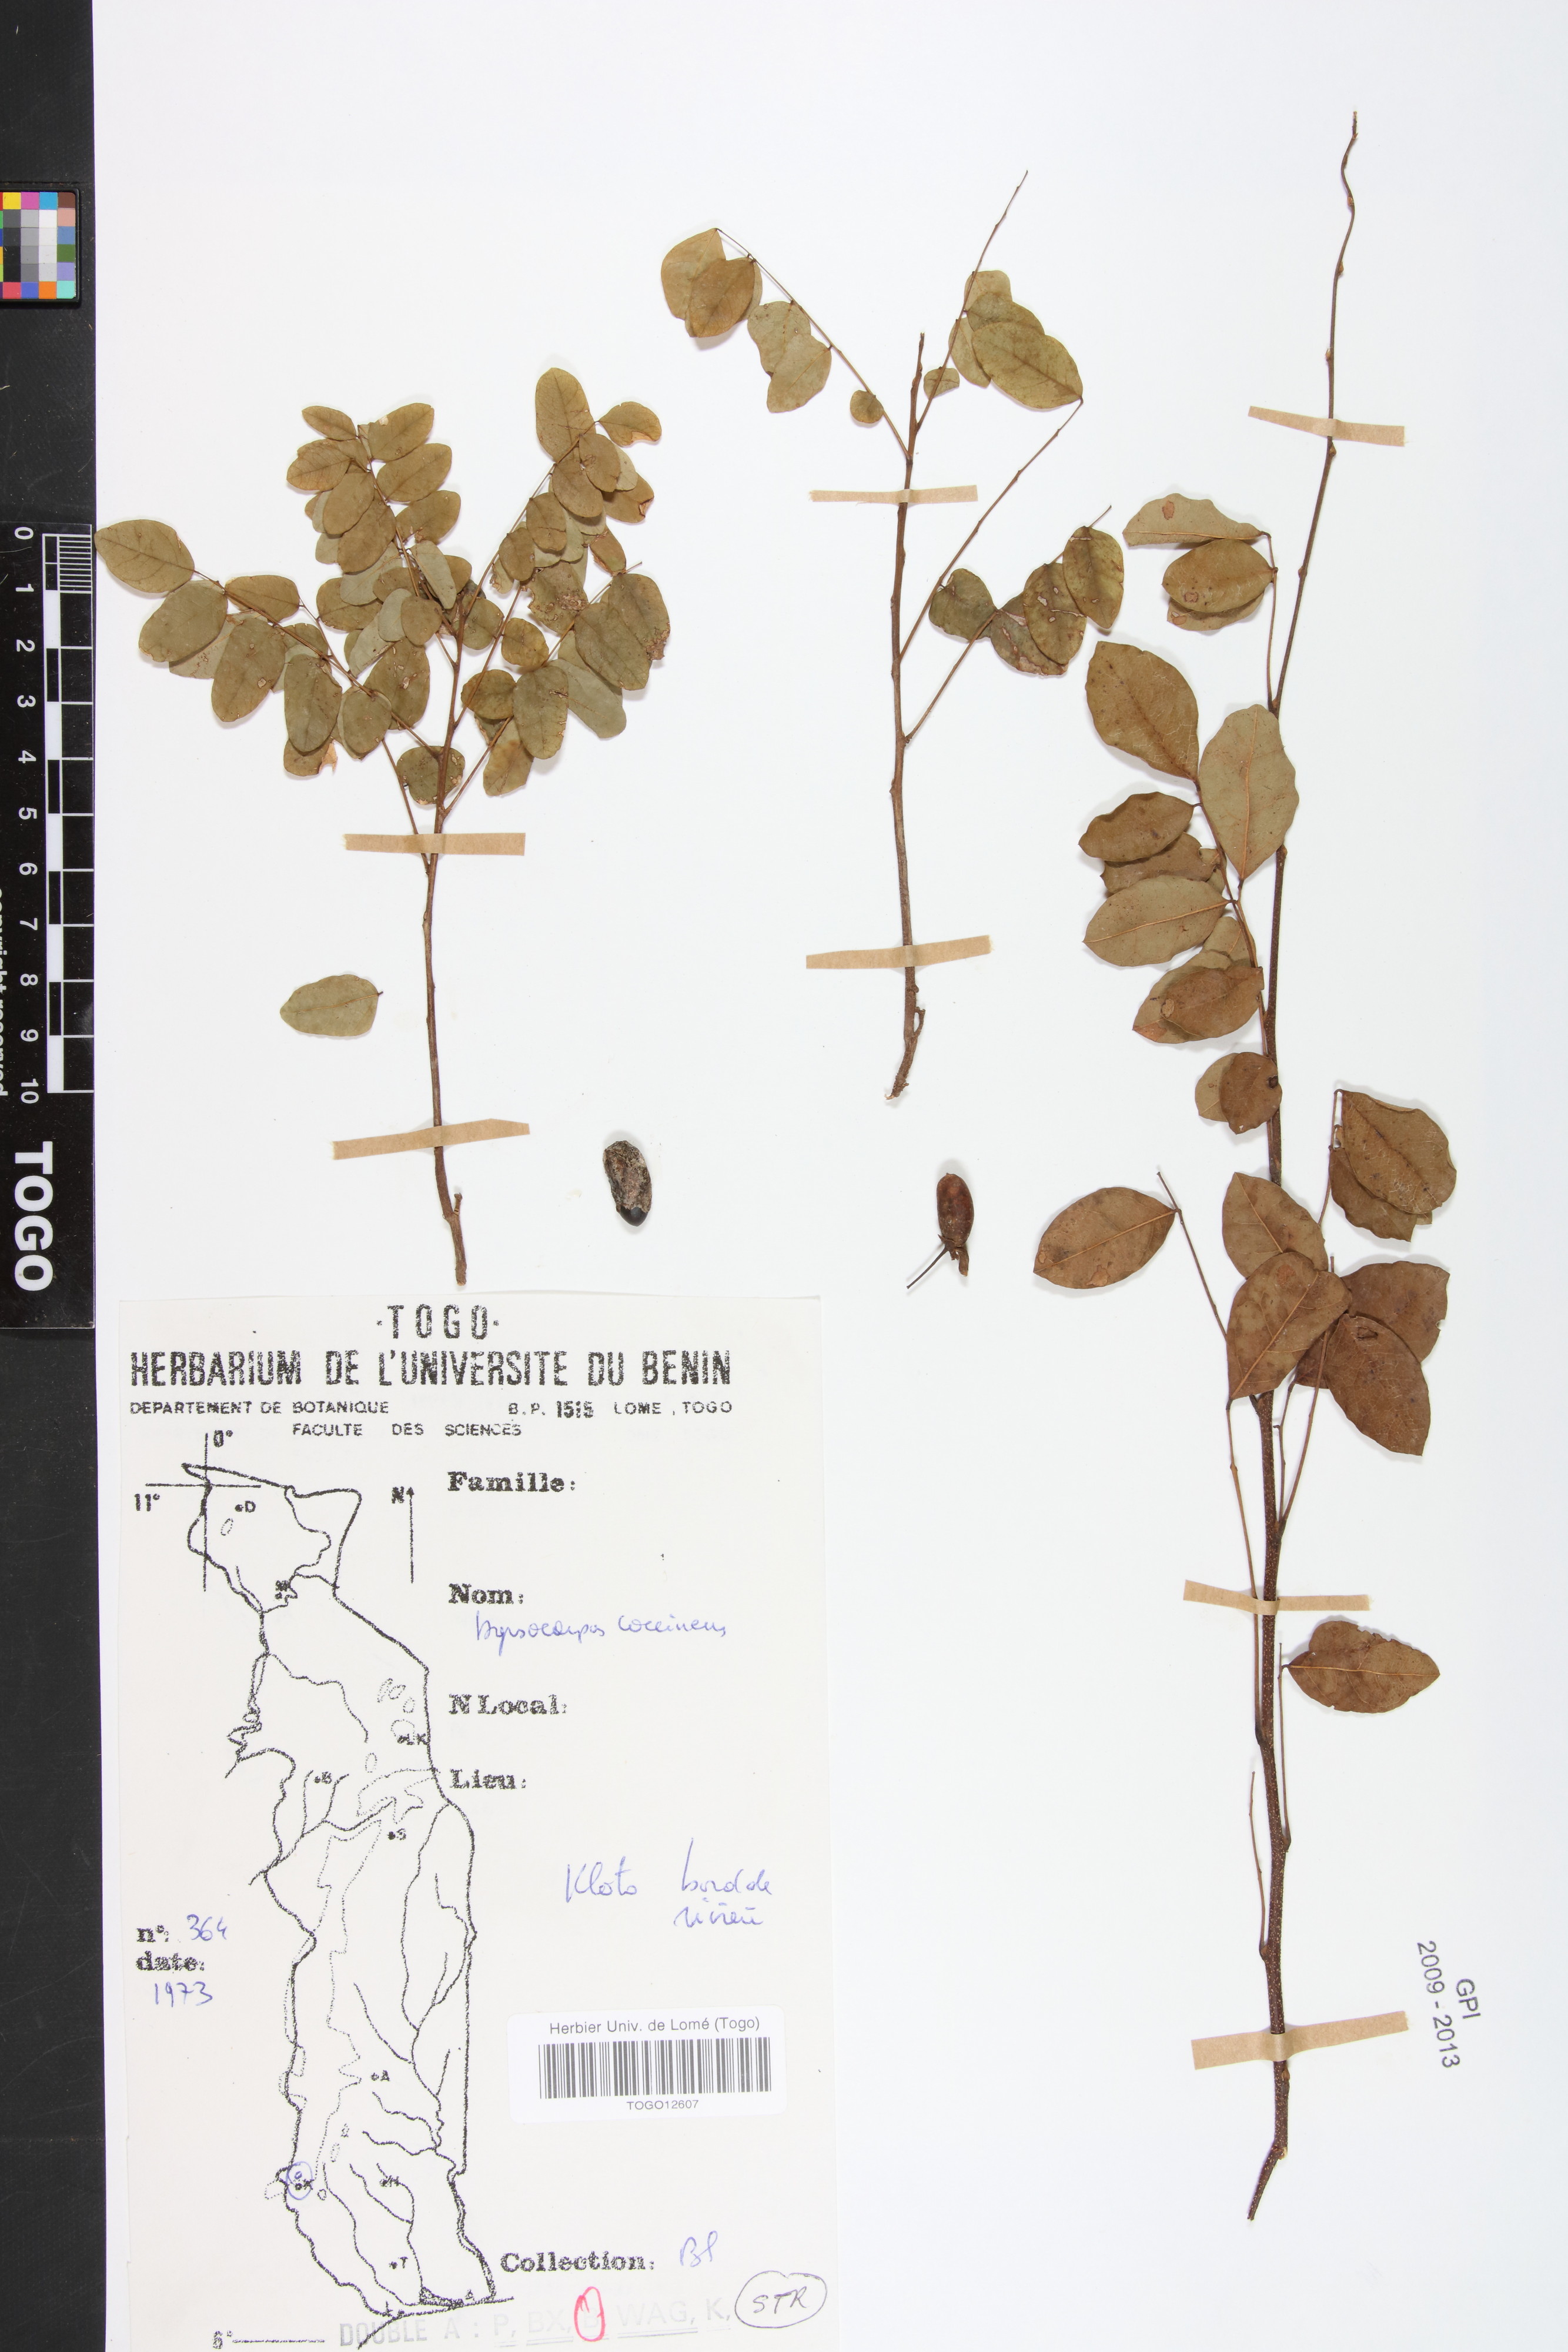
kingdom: Plantae
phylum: Tracheophyta
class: Magnoliopsida
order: Oxalidales
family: Connaraceae
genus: Rourea
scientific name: Rourea coccinea
